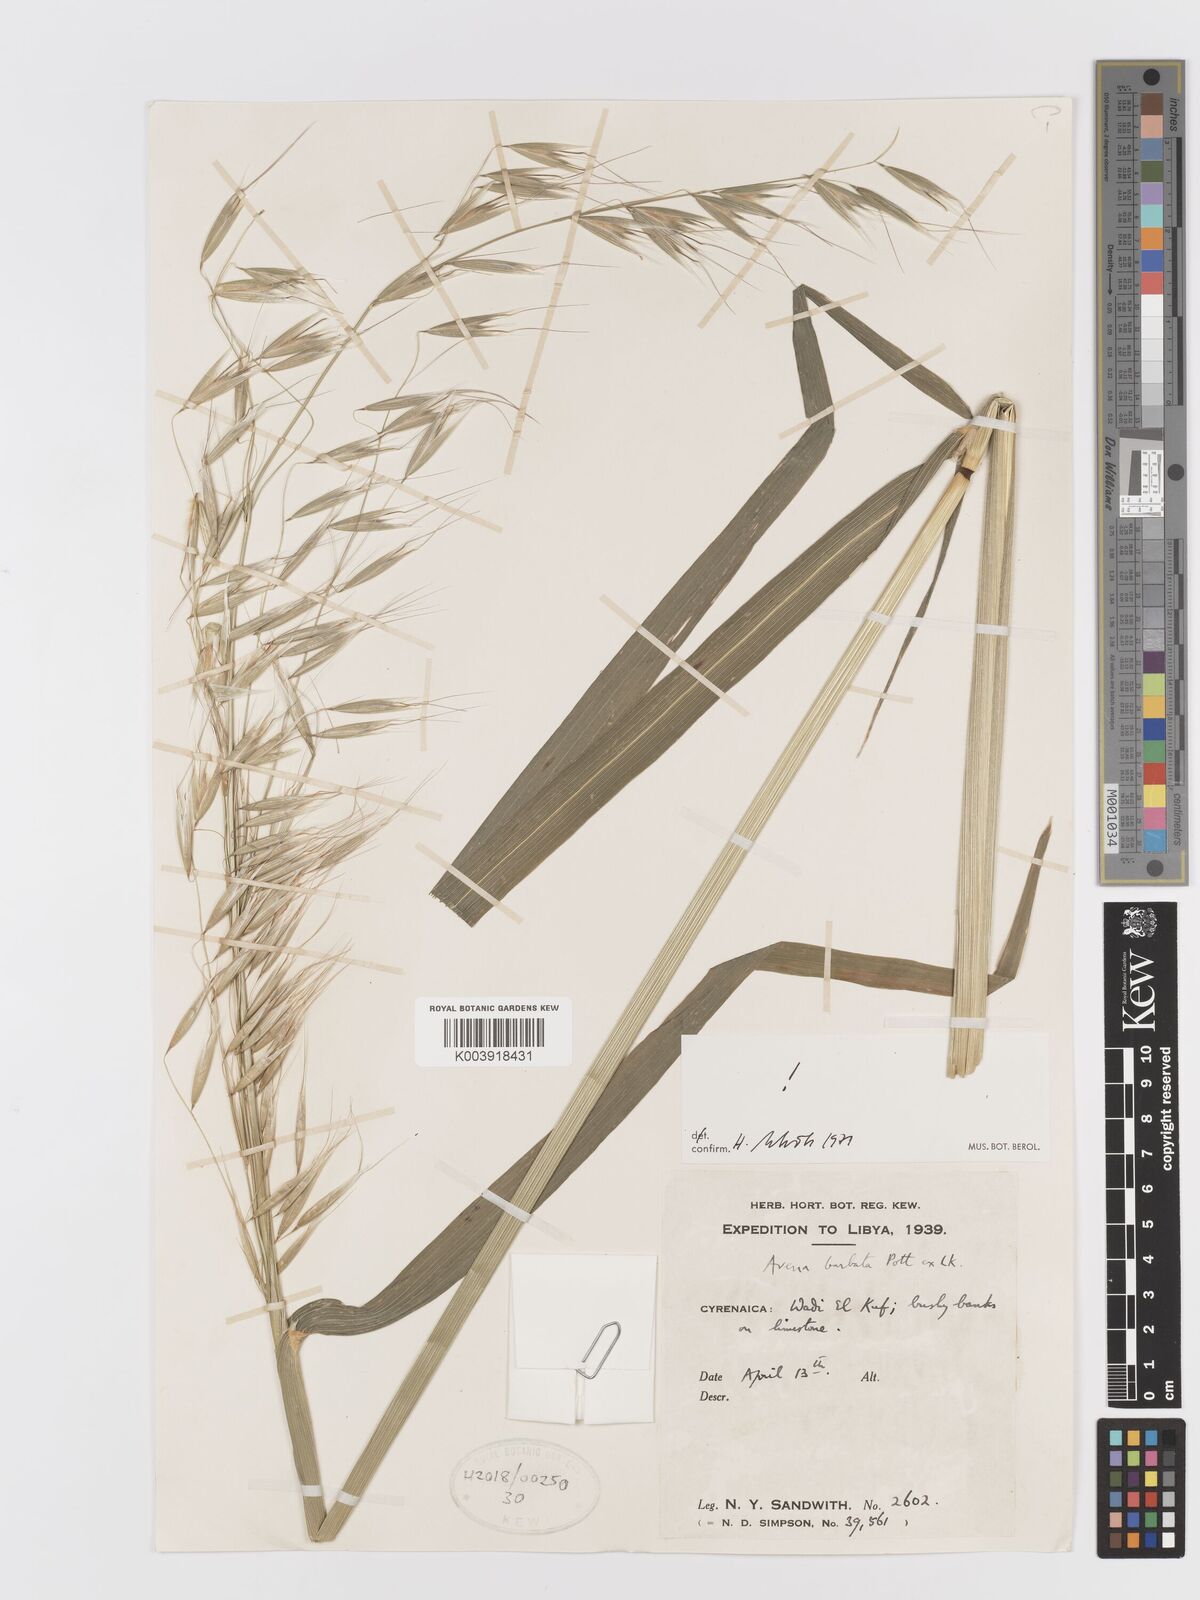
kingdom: Plantae
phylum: Tracheophyta
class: Liliopsida
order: Poales
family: Poaceae
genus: Avena
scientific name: Avena
